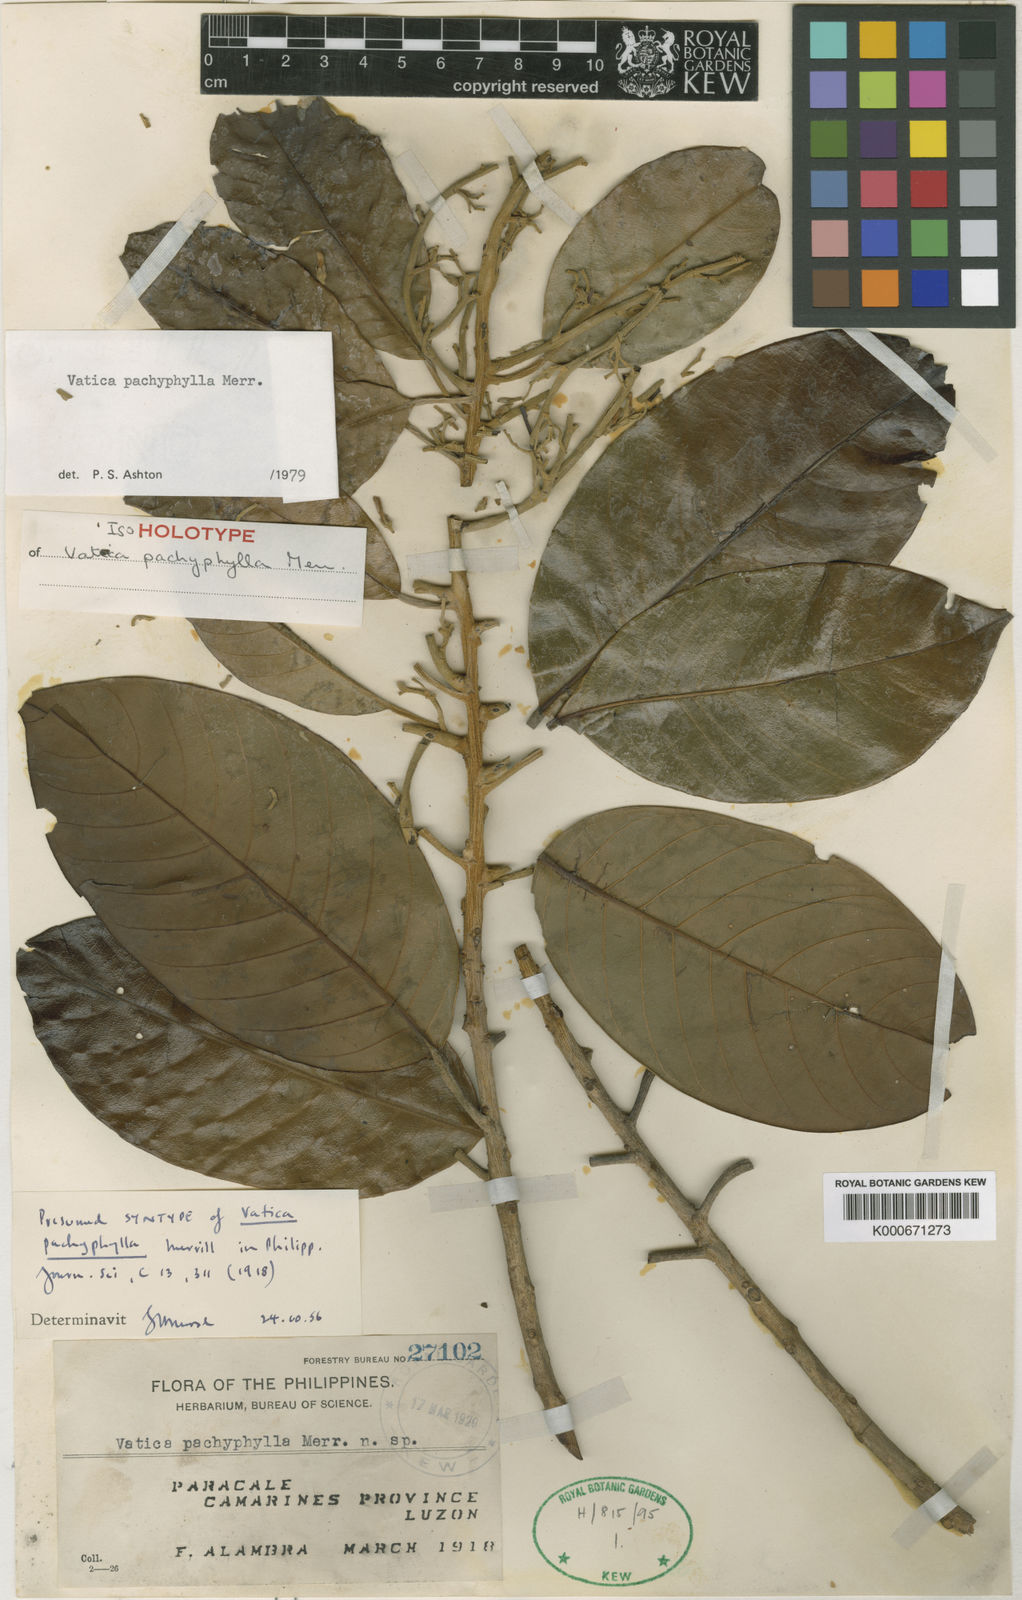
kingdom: Plantae
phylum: Tracheophyta
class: Magnoliopsida
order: Malvales
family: Dipterocarpaceae
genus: Vatica
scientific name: Vatica pachyphylla
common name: Thick-leaf narig
